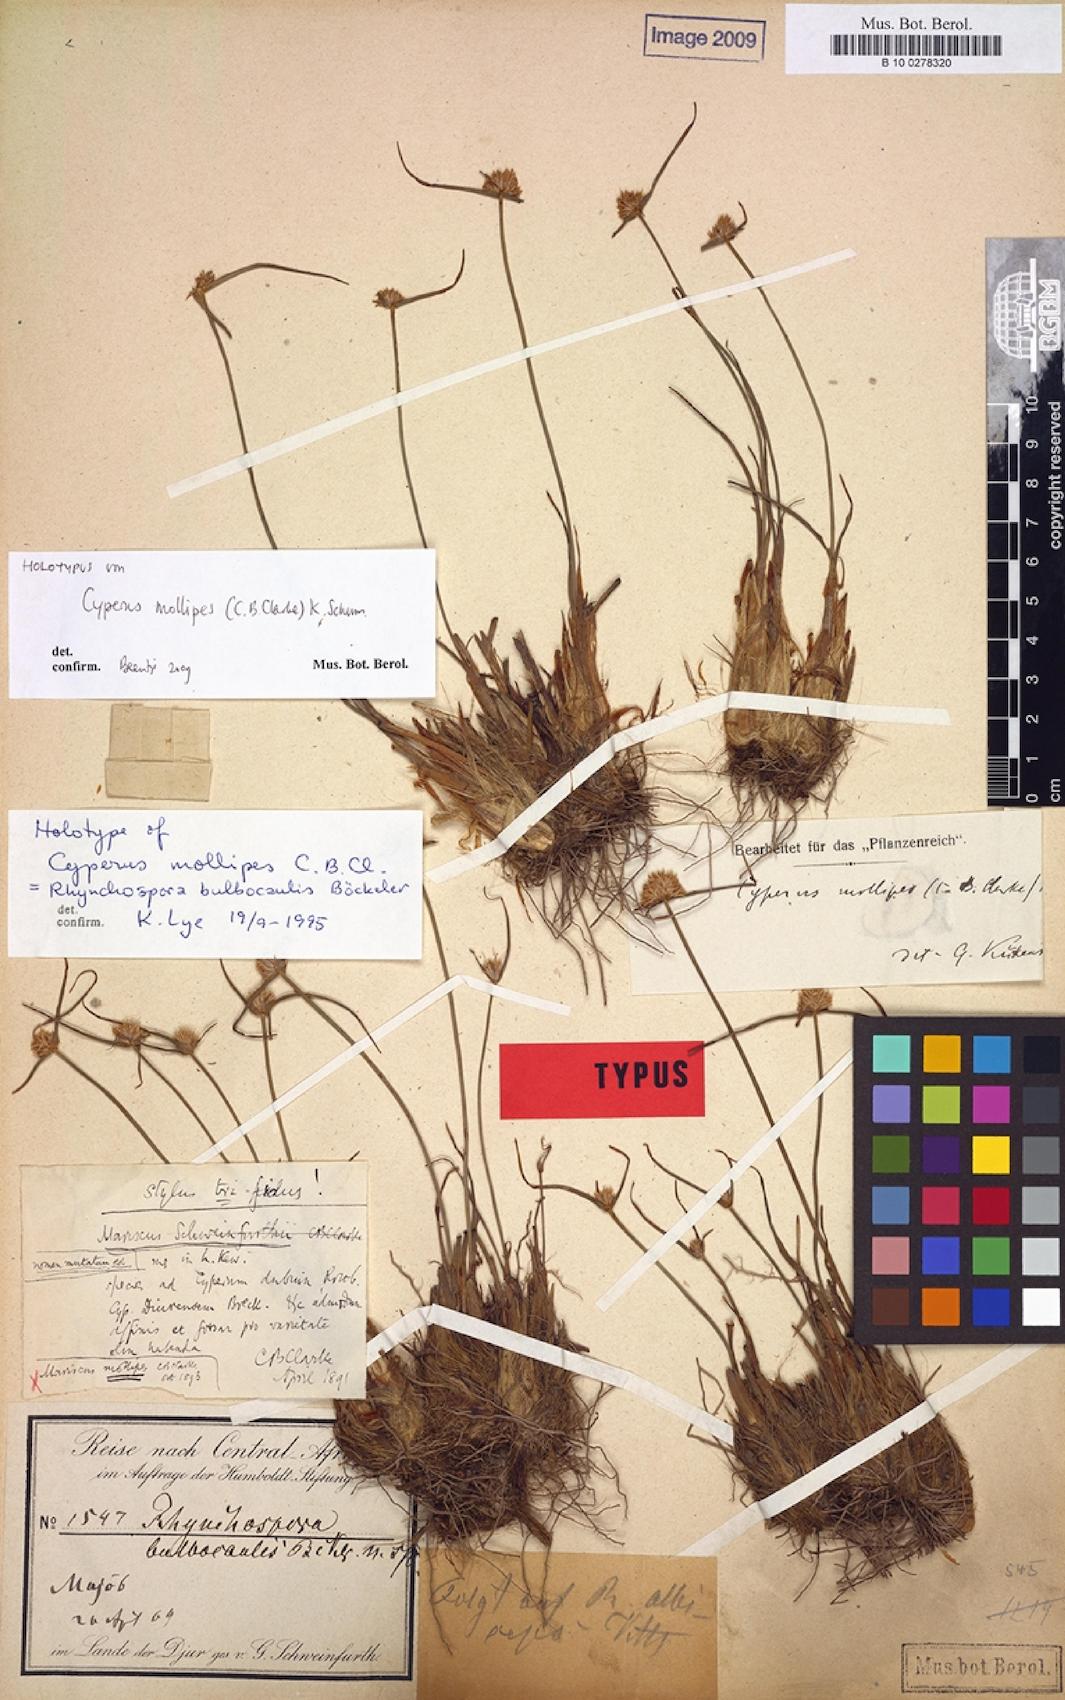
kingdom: Plantae
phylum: Tracheophyta
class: Liliopsida
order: Poales
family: Cyperaceae
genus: Cyperus
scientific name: Cyperus mollipes
